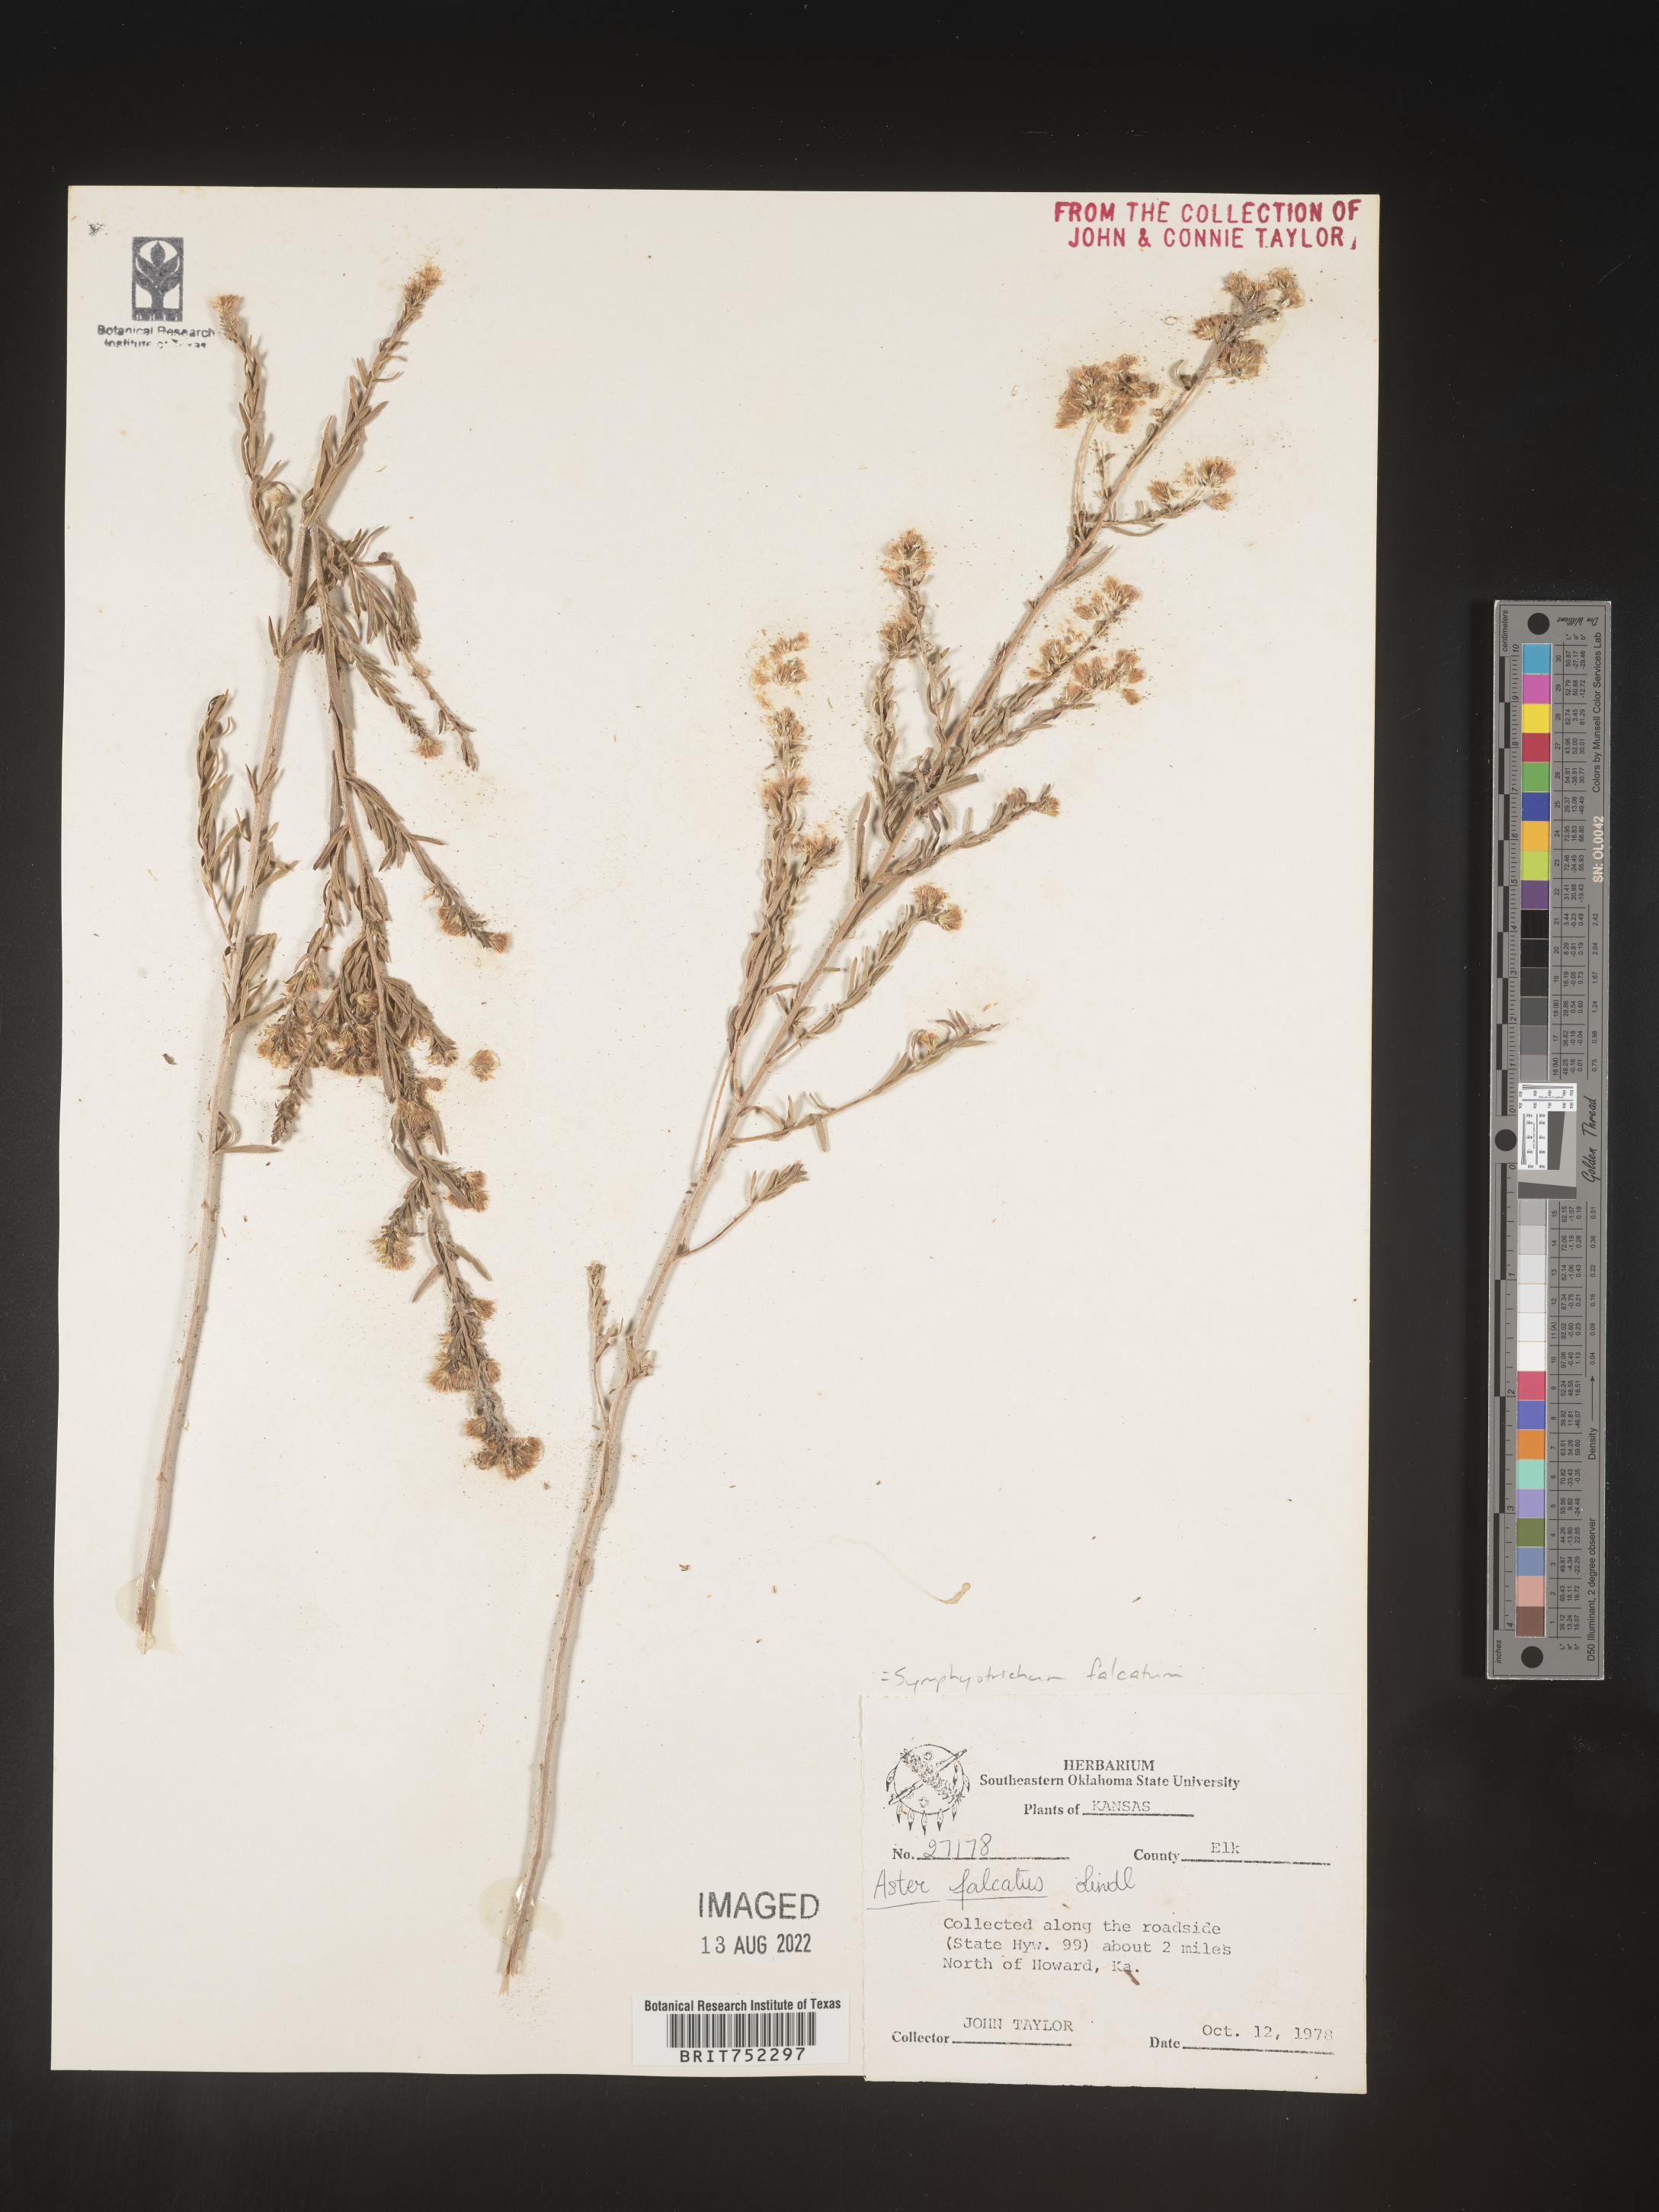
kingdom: Plantae
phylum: Tracheophyta
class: Magnoliopsida
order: Asterales
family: Asteraceae
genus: Symphyotrichum
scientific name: Symphyotrichum falcatum
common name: Creeping white prairie aster
